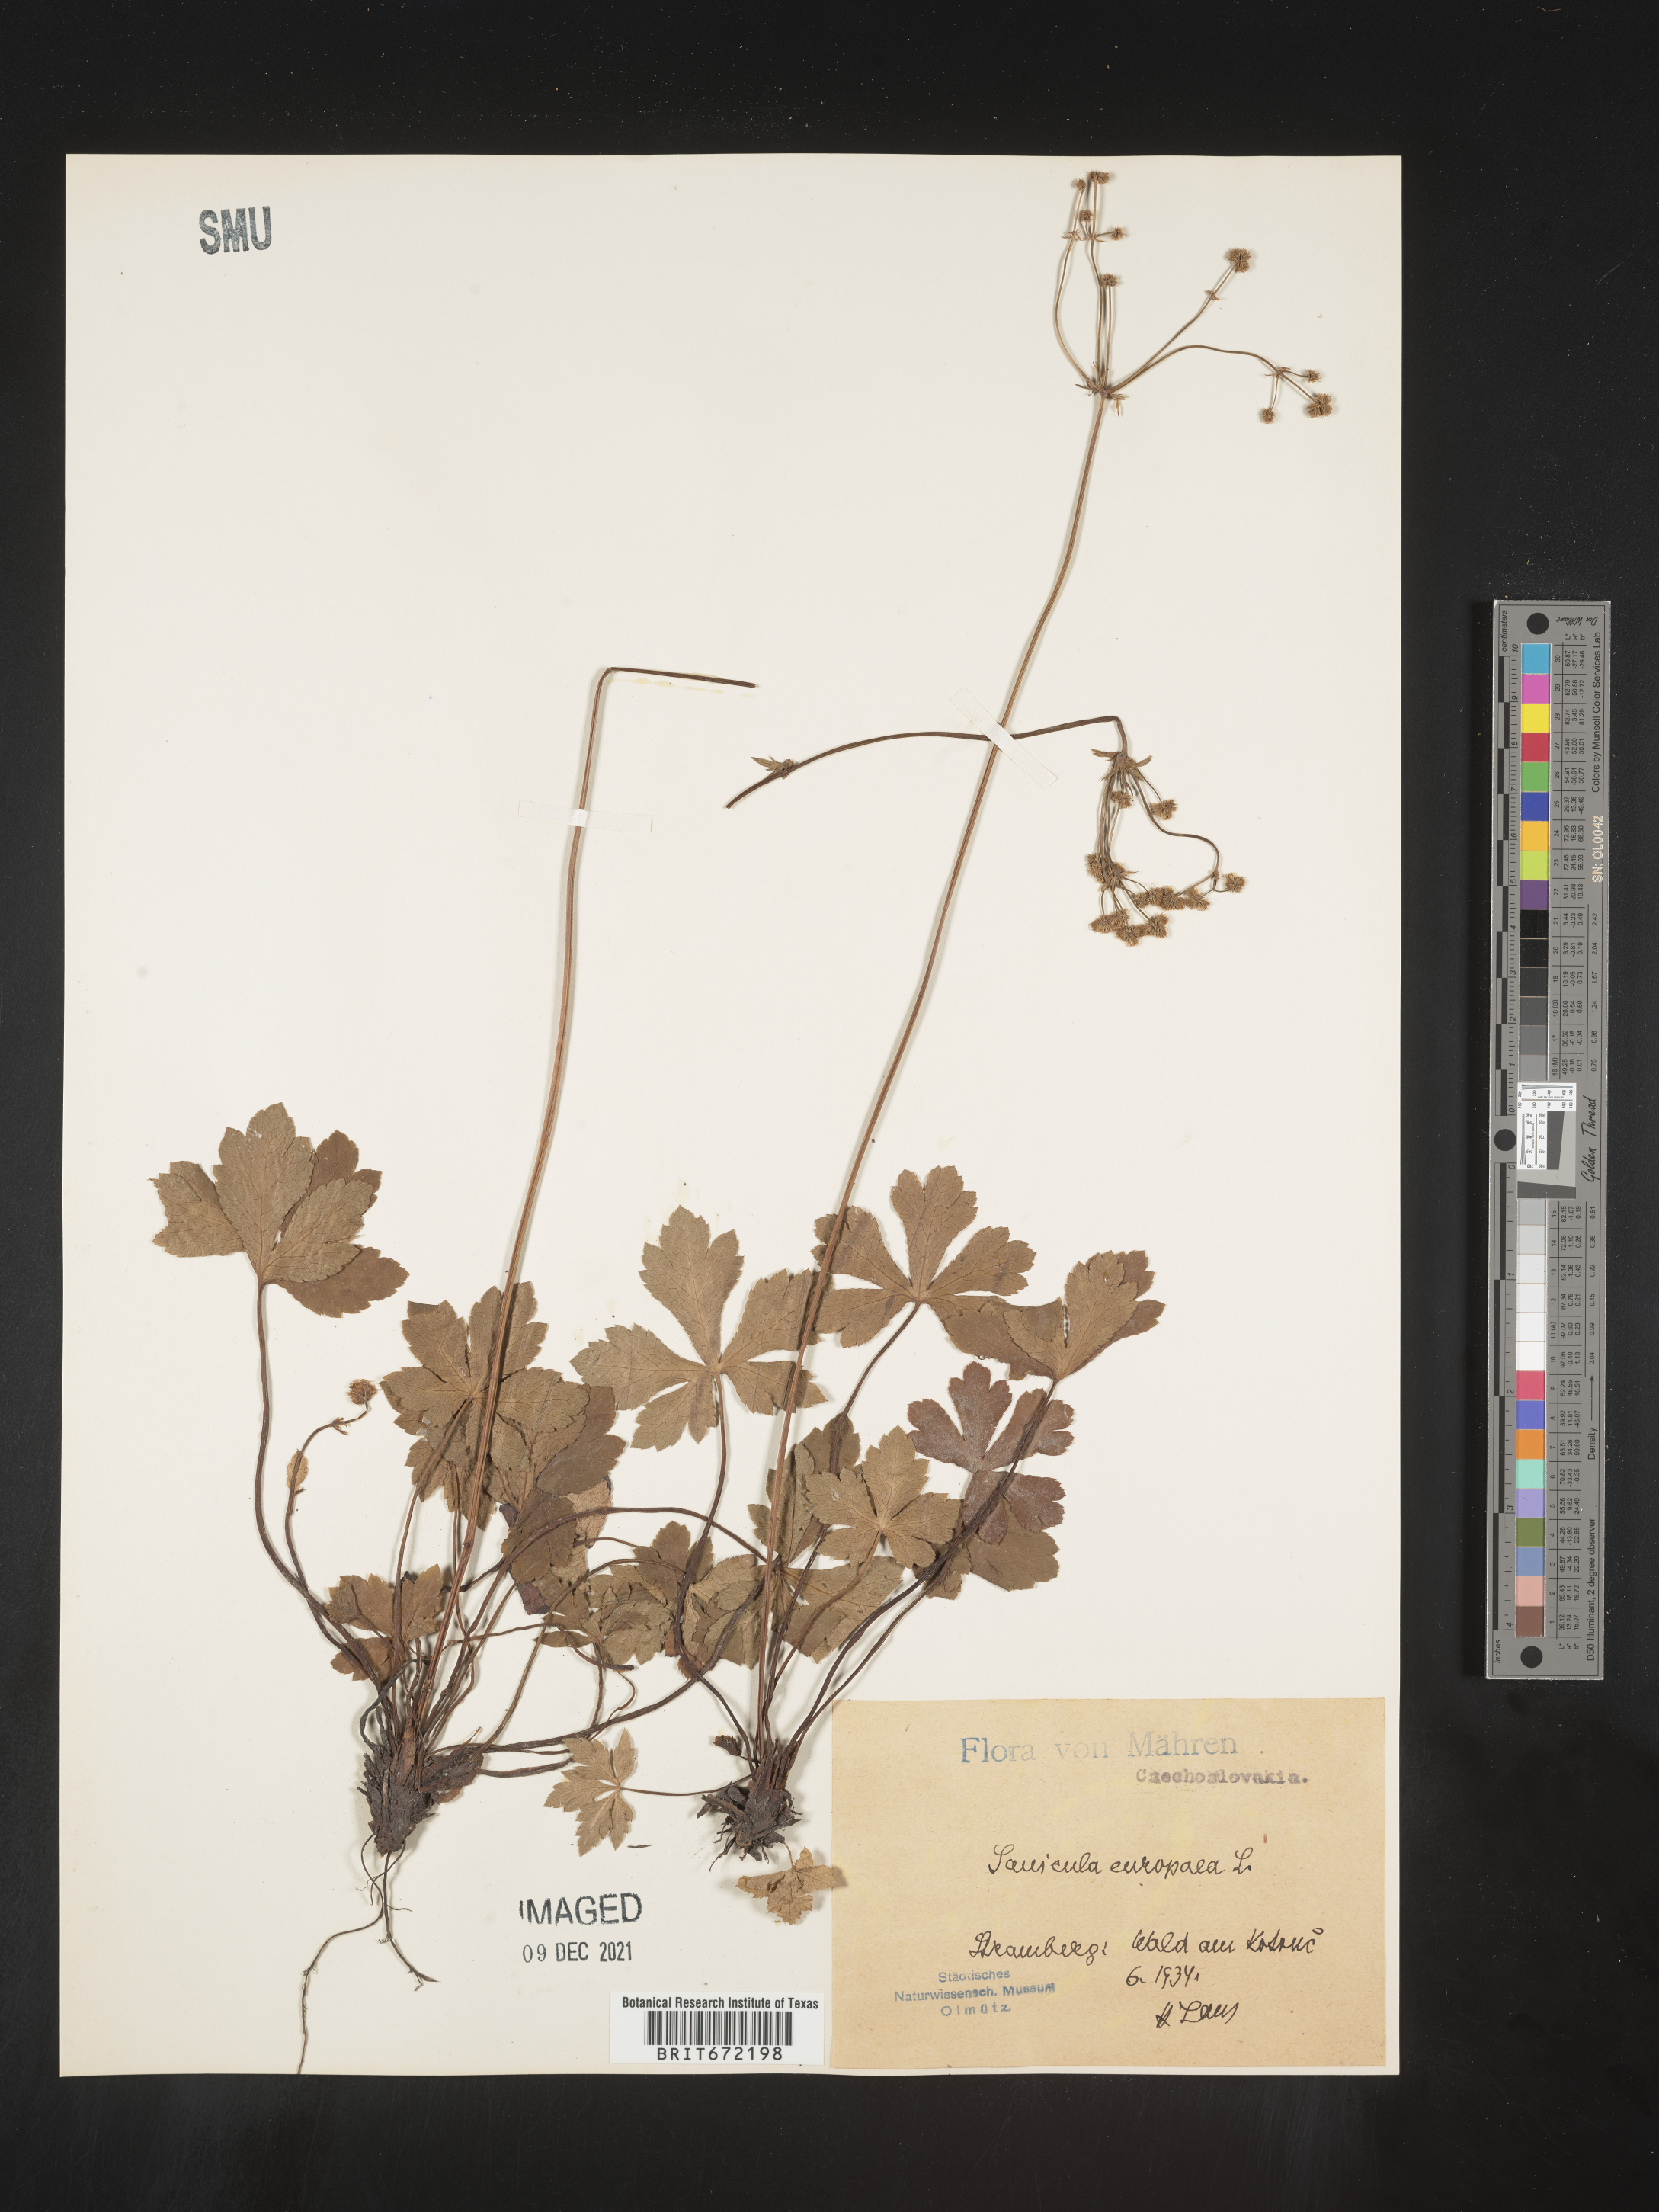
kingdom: Plantae
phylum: Tracheophyta
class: Magnoliopsida
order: Apiales
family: Apiaceae
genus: Sanicula
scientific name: Sanicula
